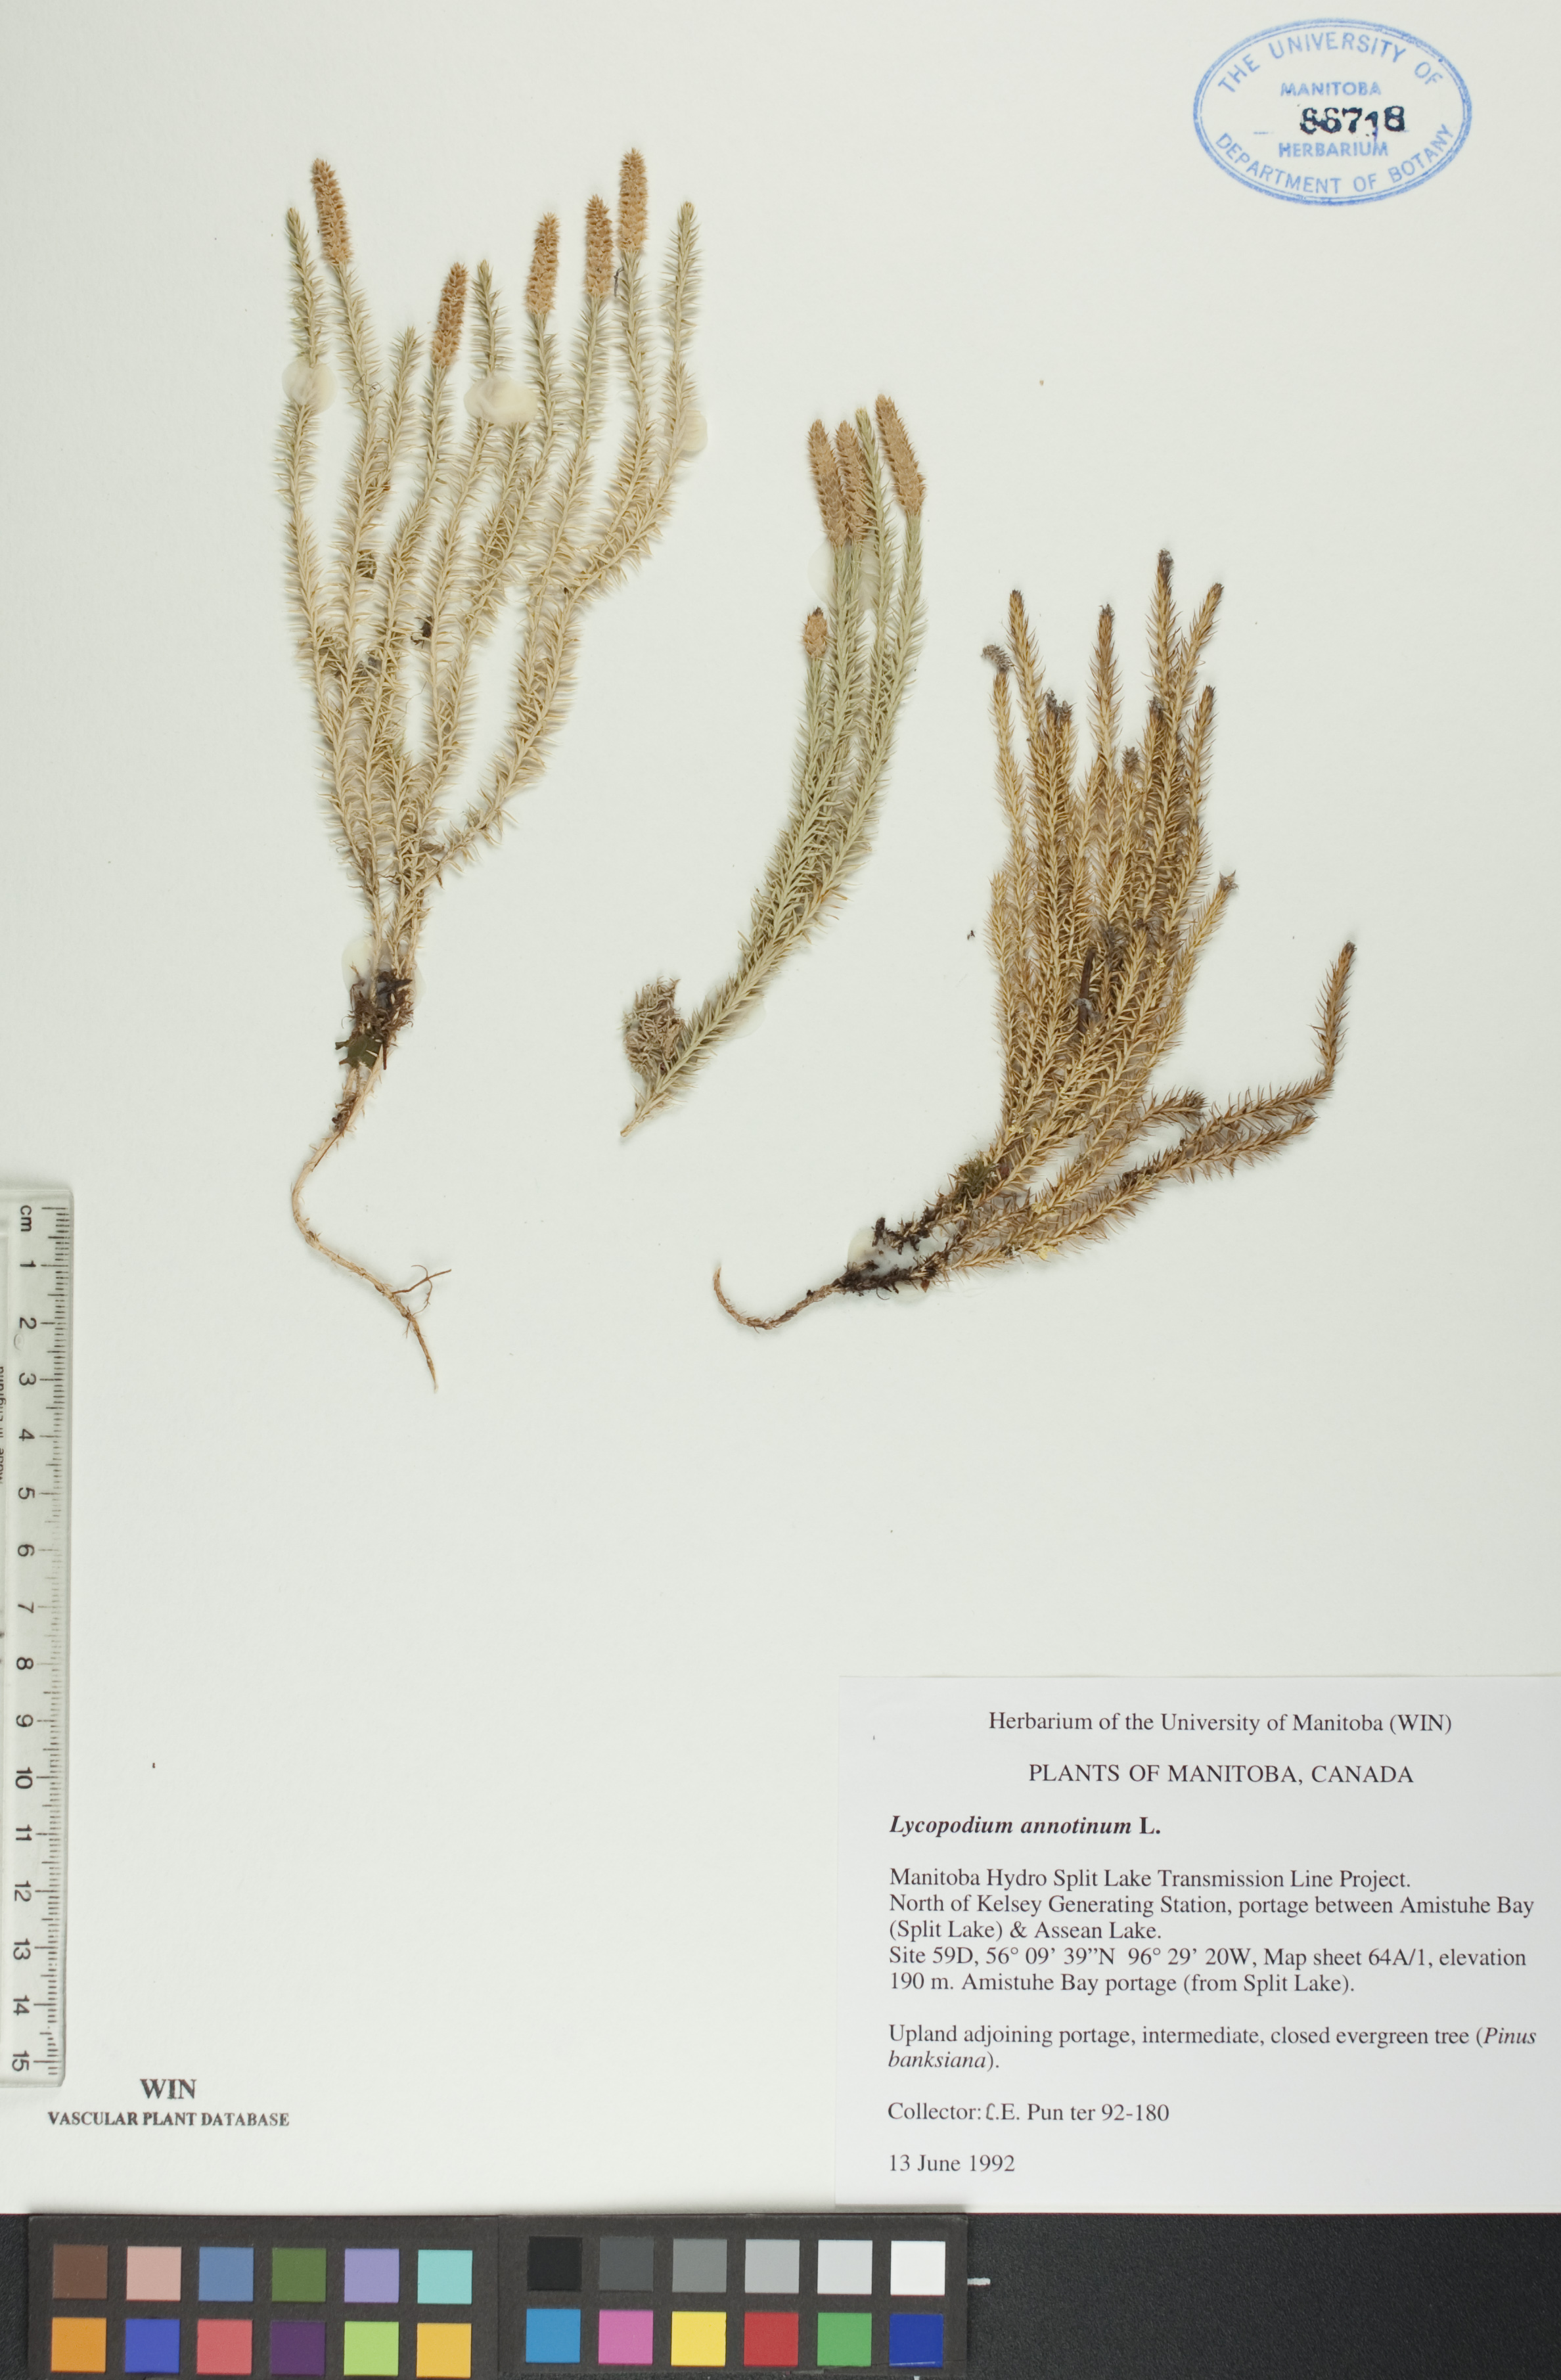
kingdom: Plantae
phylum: Tracheophyta
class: Lycopodiopsida
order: Lycopodiales
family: Lycopodiaceae
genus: Spinulum
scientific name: Spinulum annotinum
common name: Interrupted club-moss
